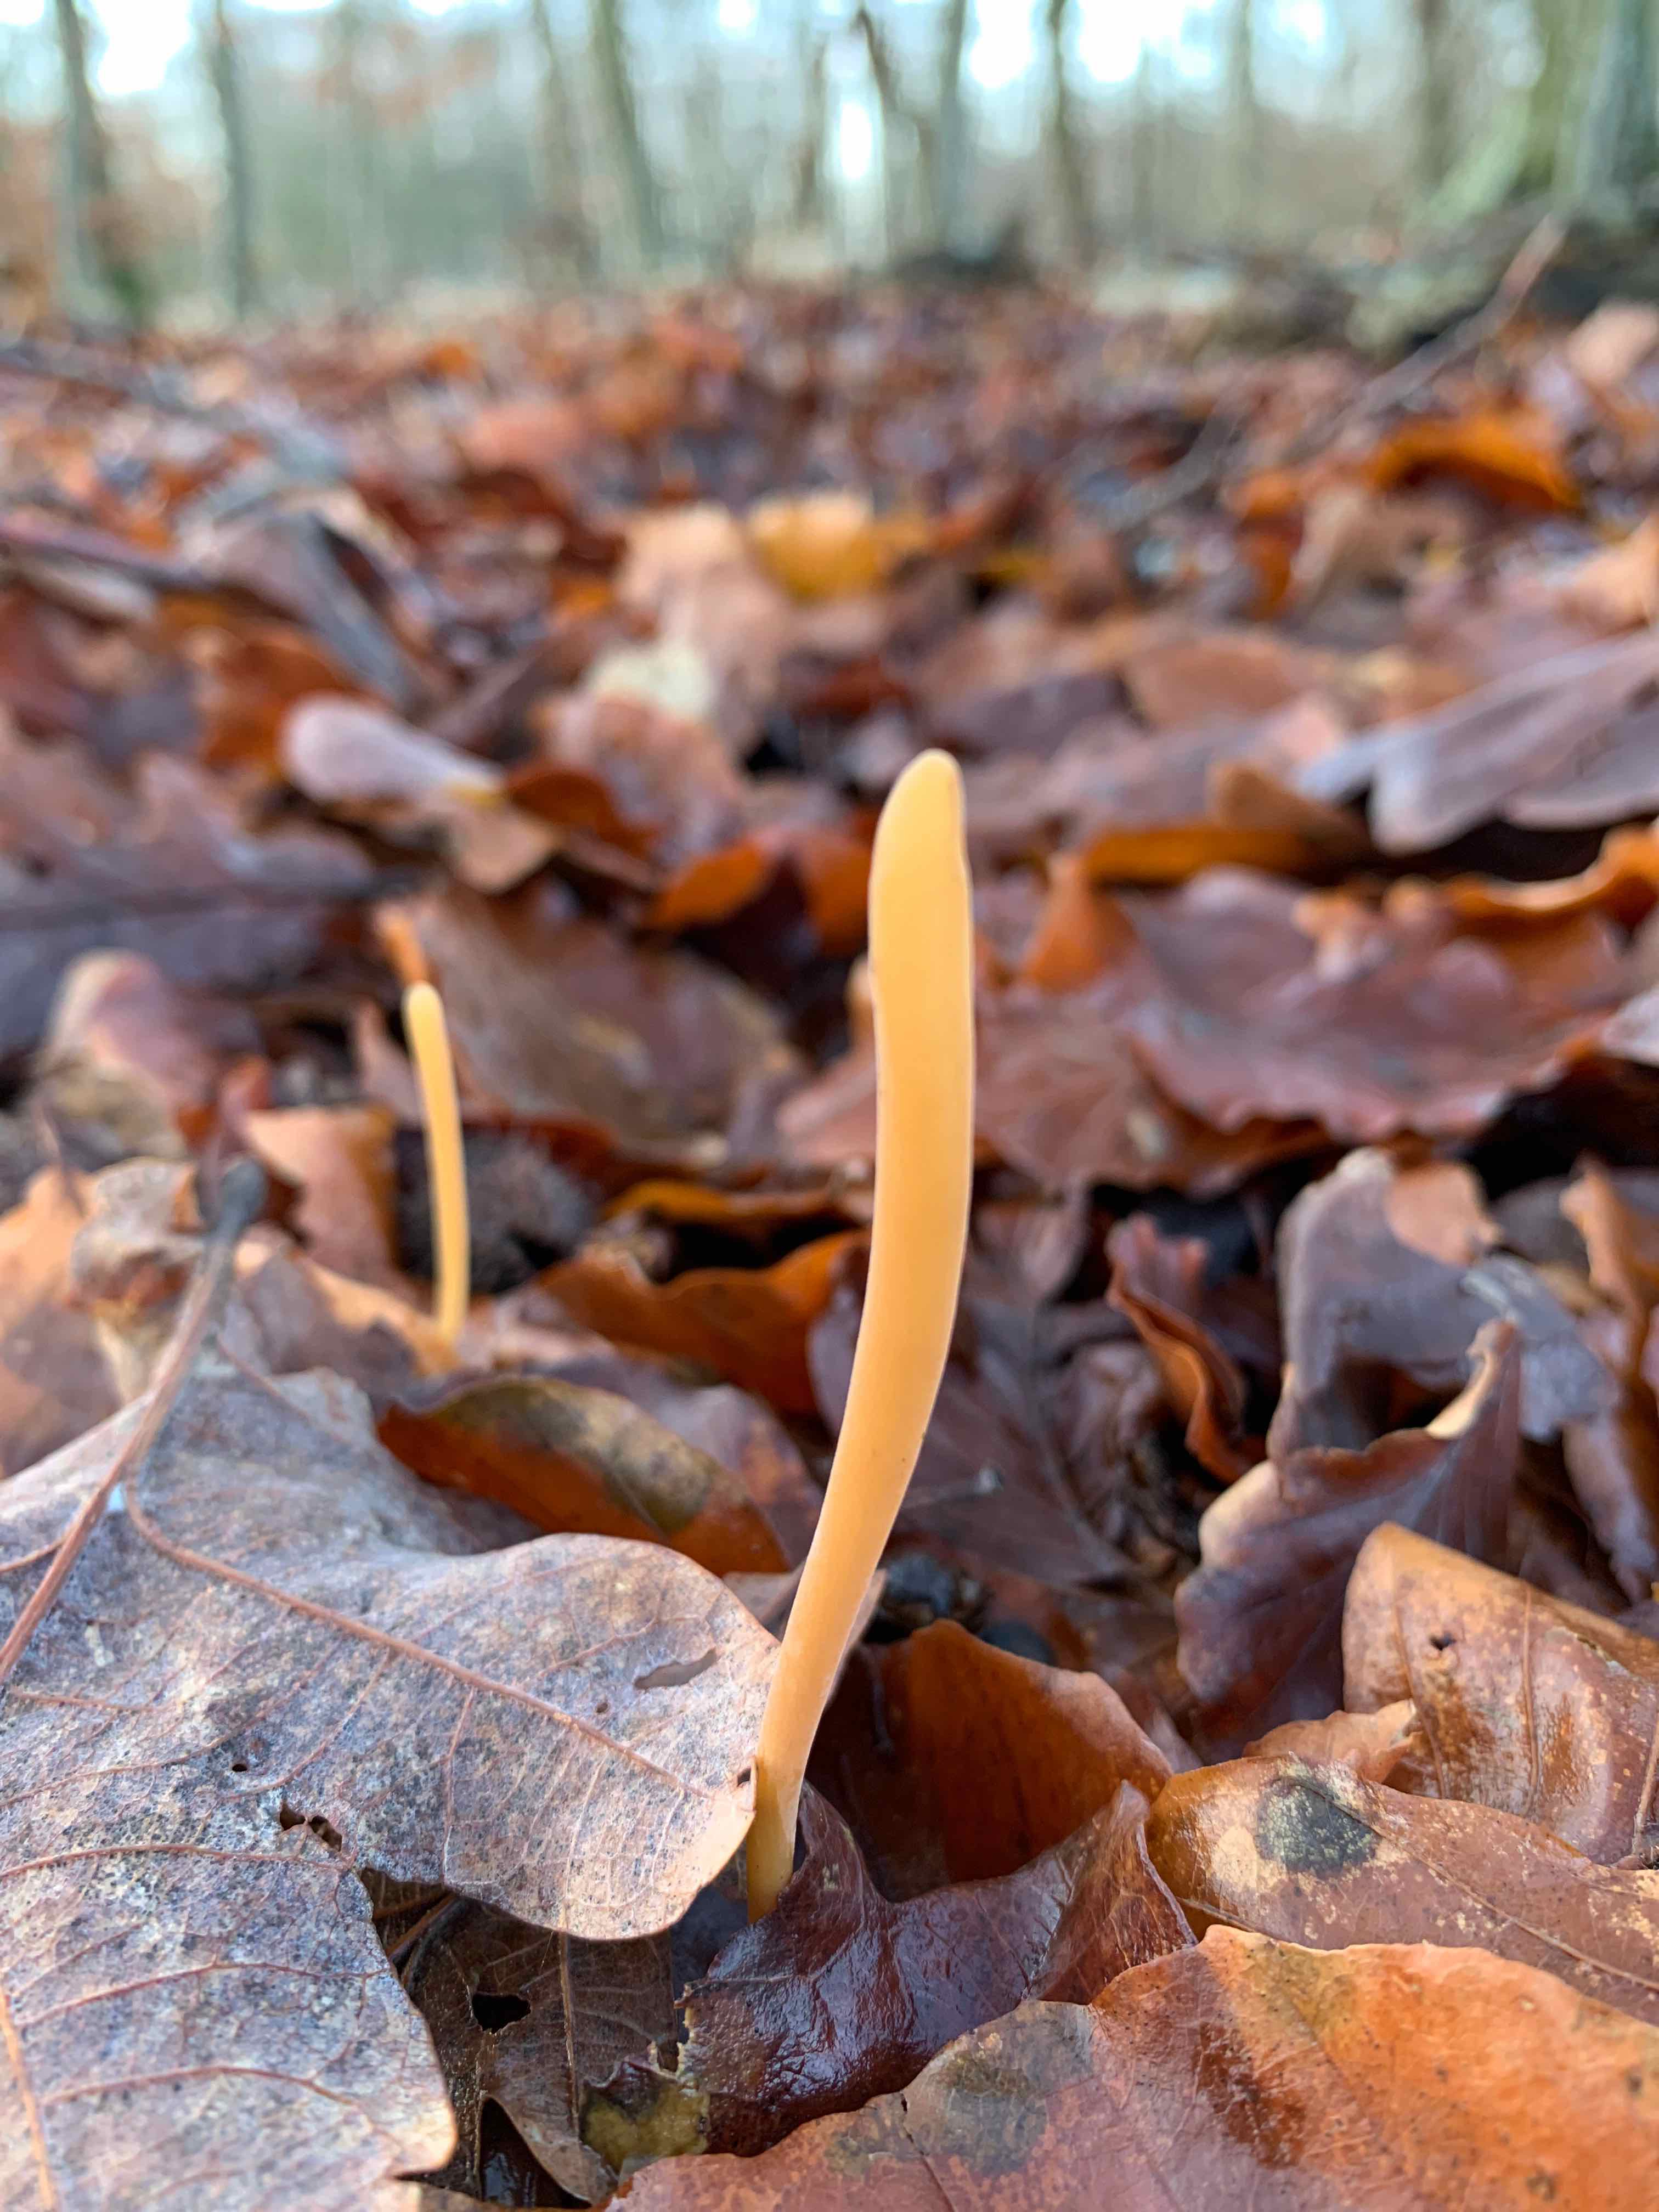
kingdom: Fungi
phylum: Basidiomycota
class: Agaricomycetes
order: Agaricales
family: Typhulaceae
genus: Typhula
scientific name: Typhula fistulosa
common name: pibet rørkølle
